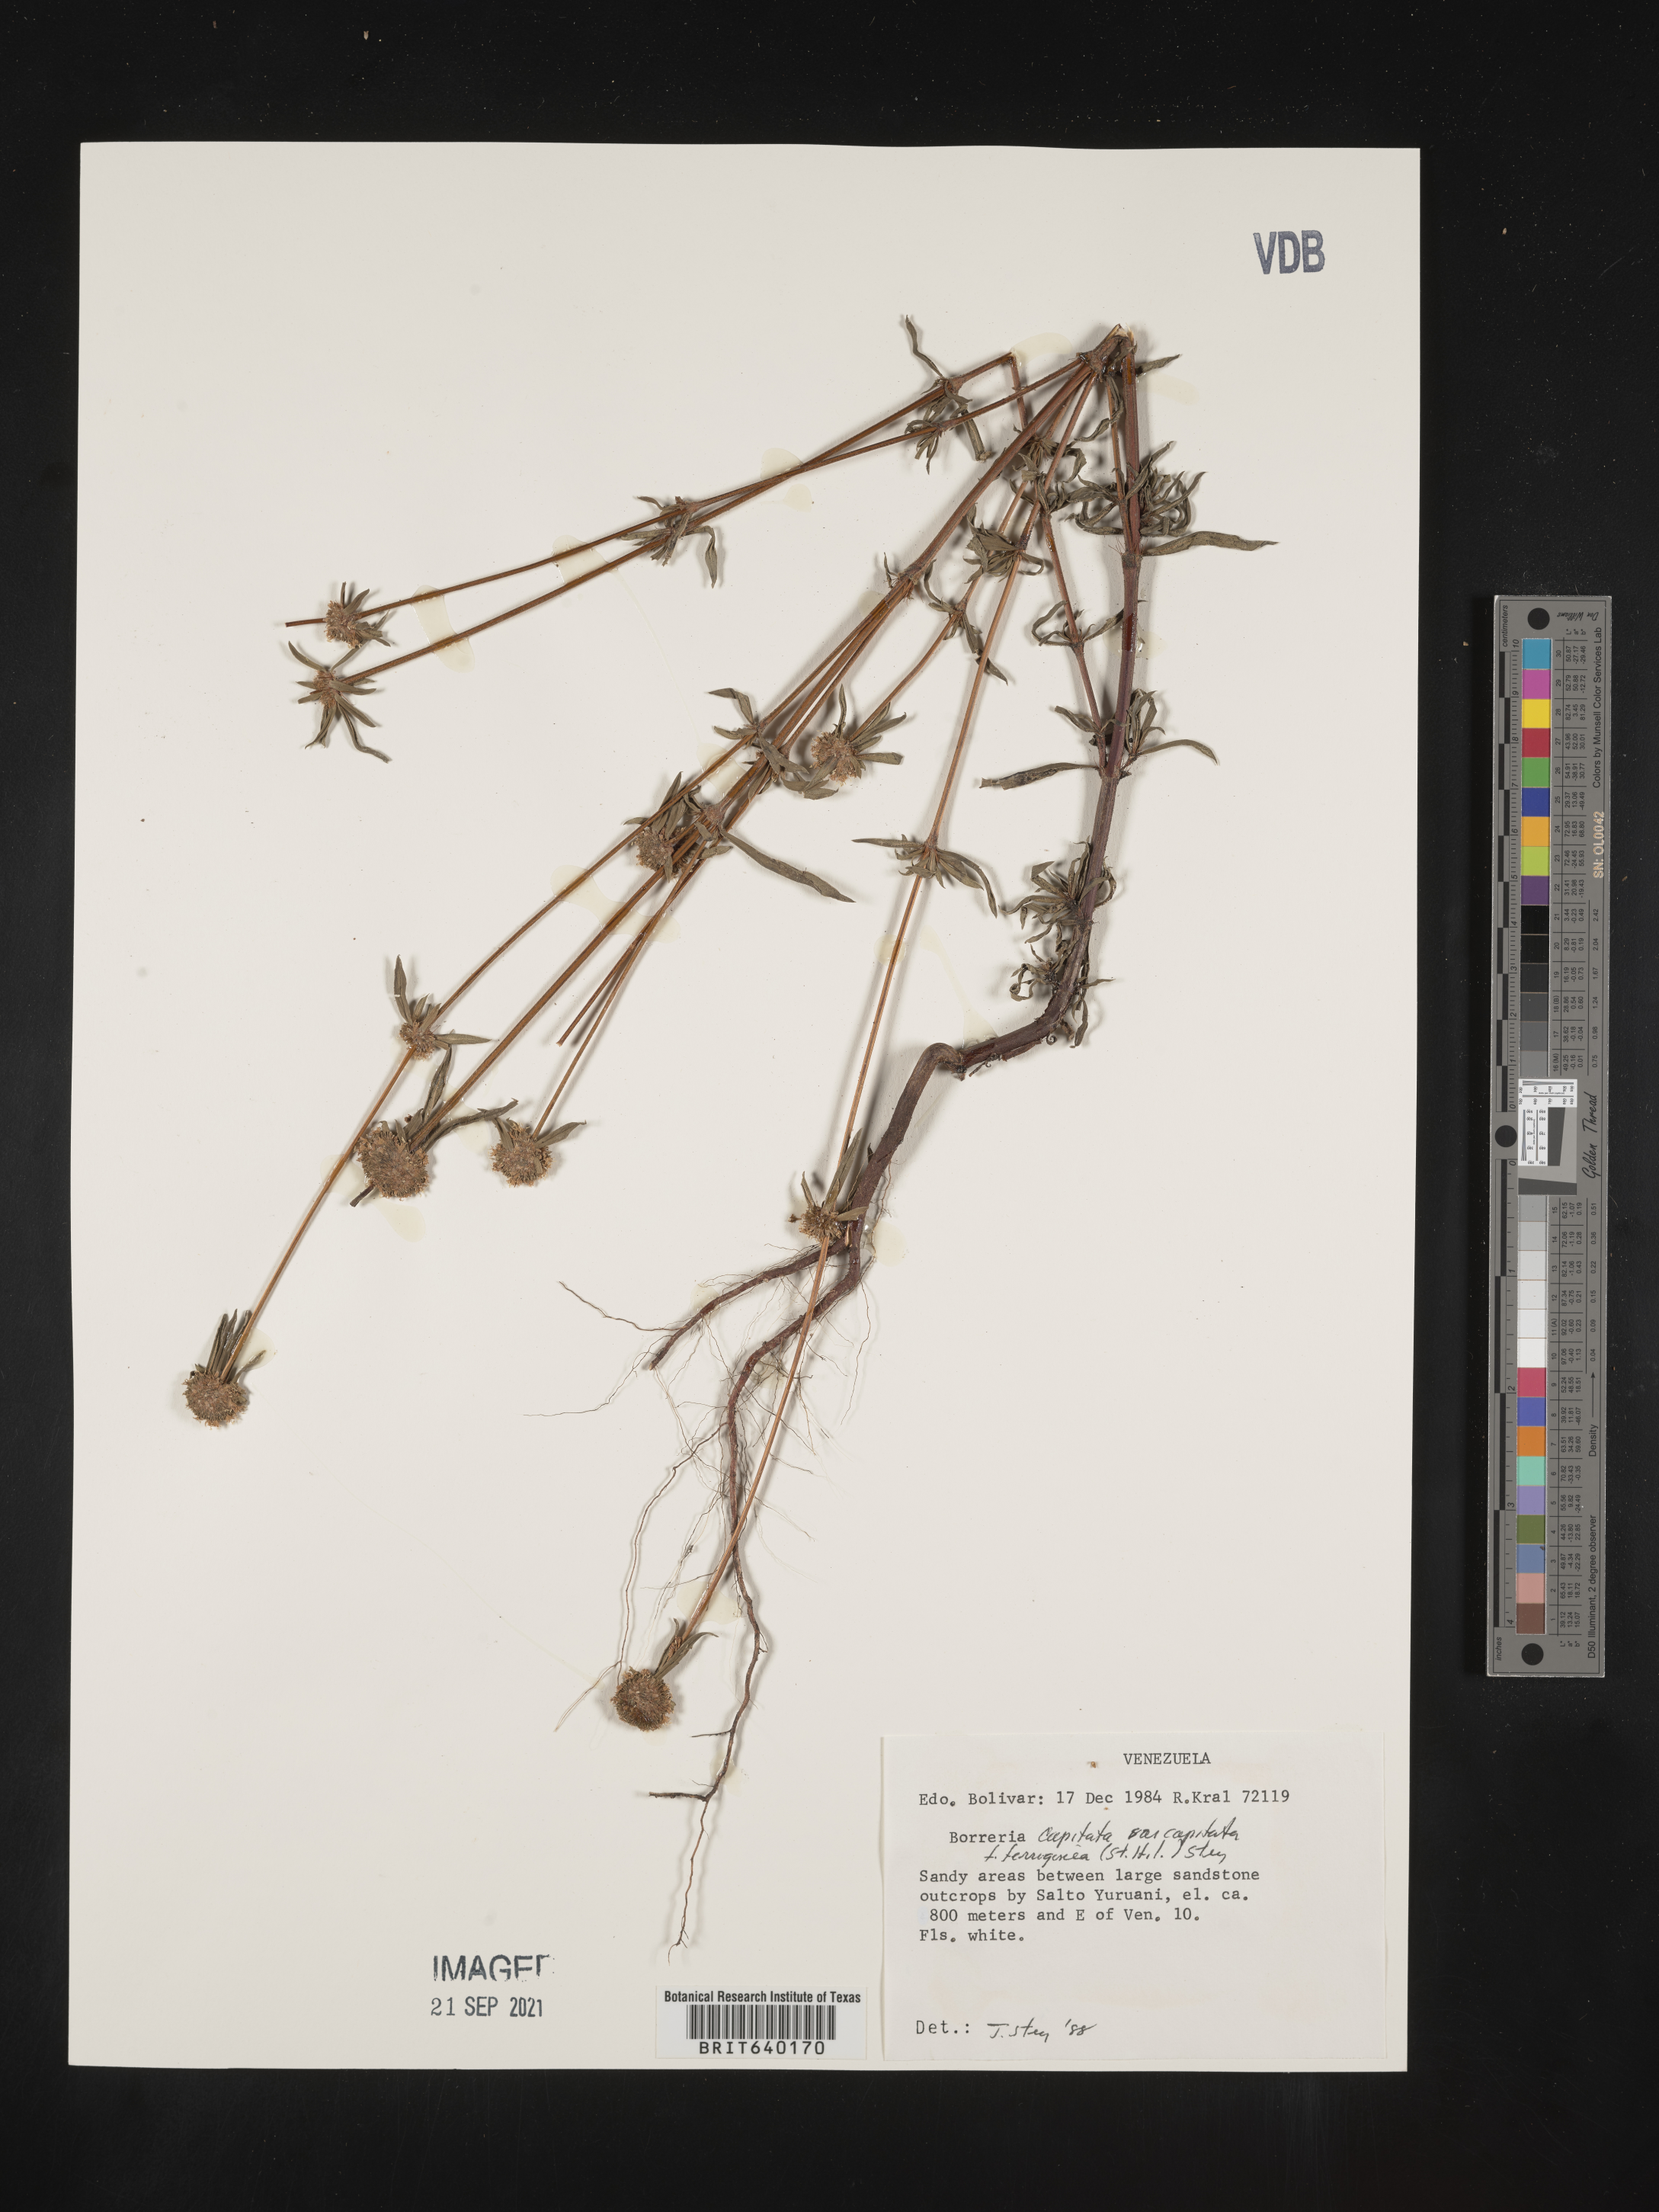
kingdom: Plantae
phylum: Tracheophyta
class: Magnoliopsida
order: Gentianales
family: Rubiaceae
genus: Spermacoce
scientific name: Spermacoce
